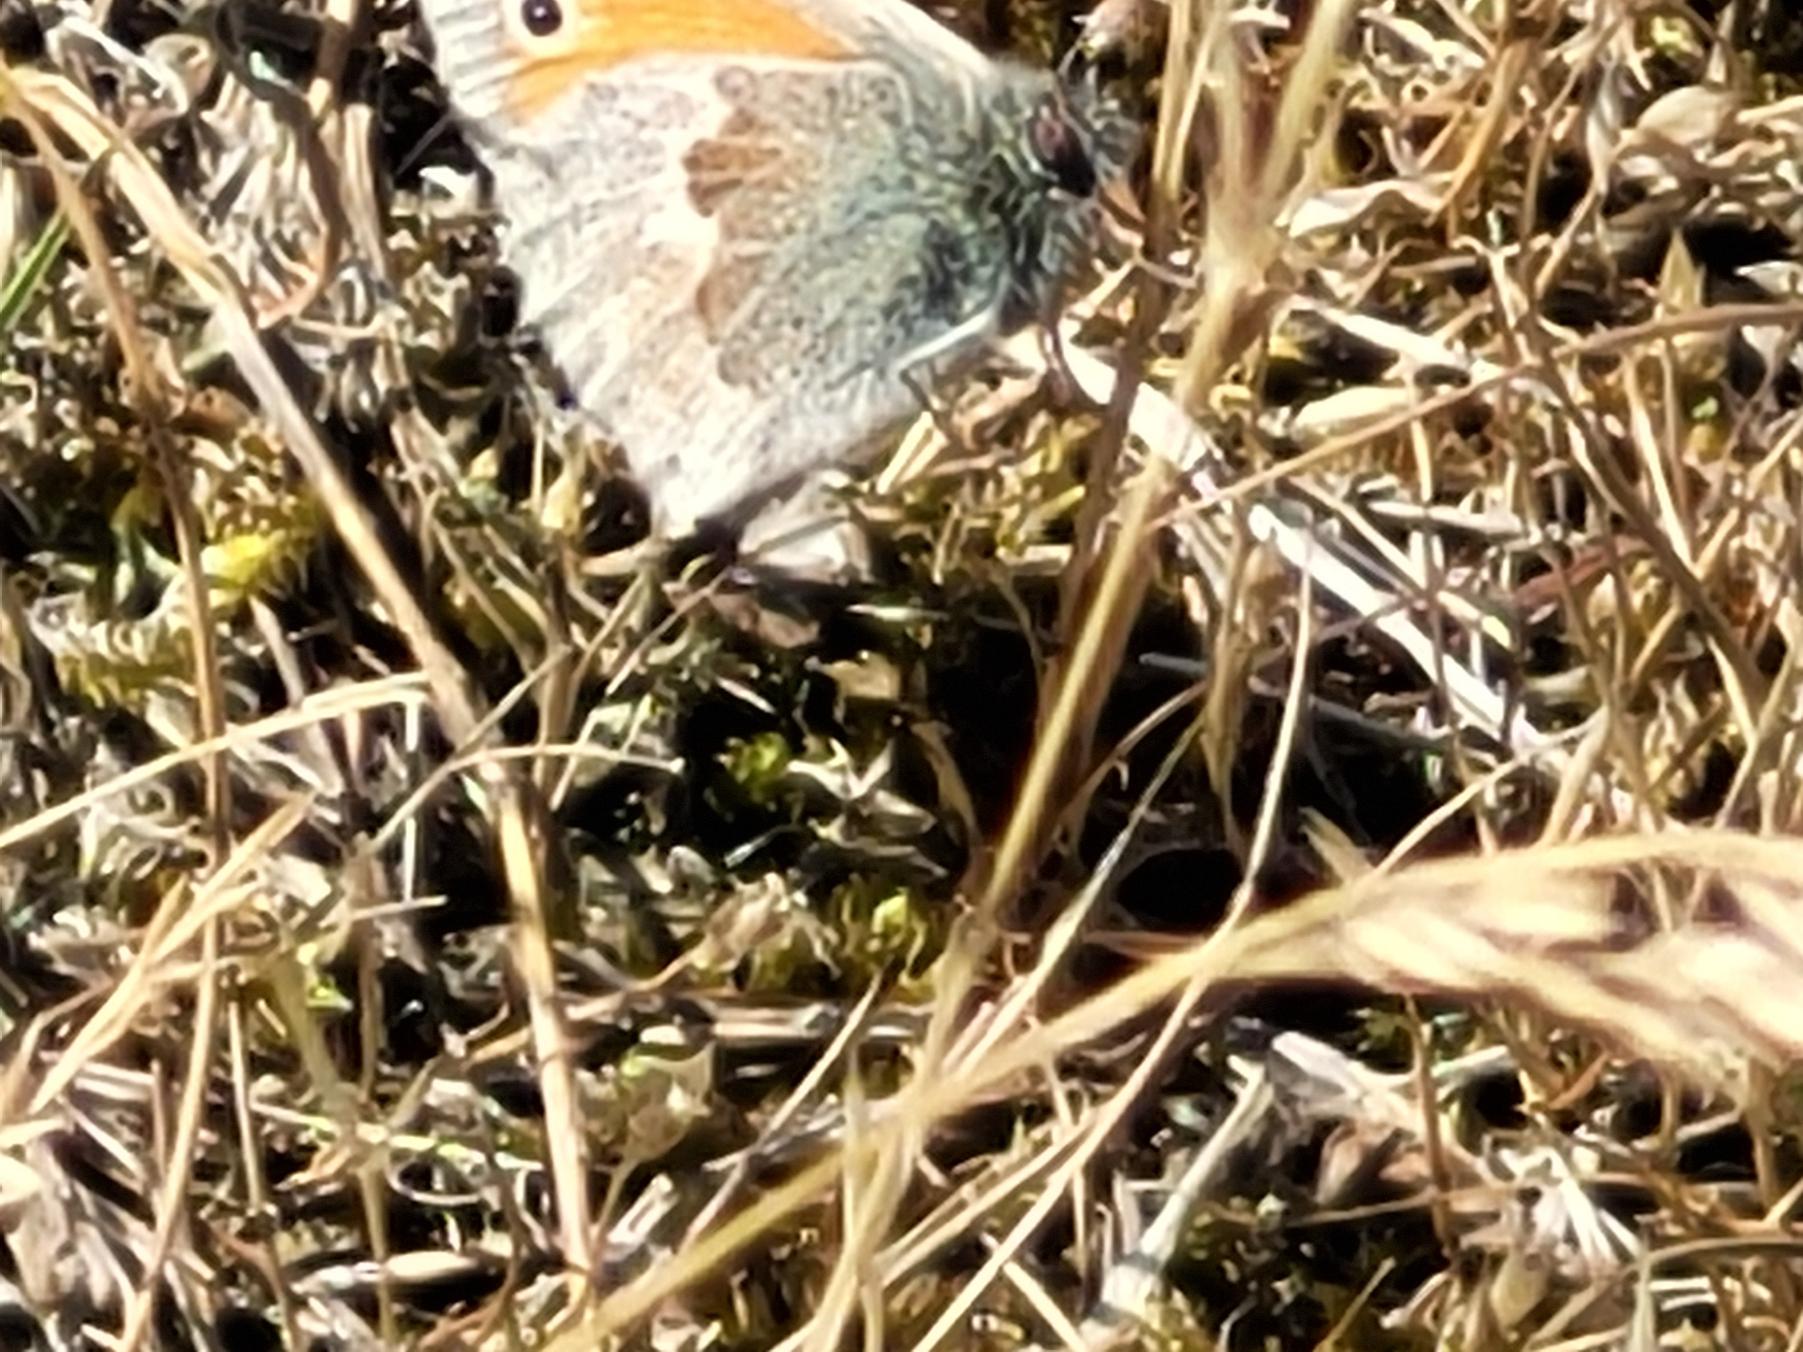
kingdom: Animalia
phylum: Arthropoda
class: Insecta
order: Lepidoptera
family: Nymphalidae
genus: Coenonympha
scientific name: Coenonympha pamphilus
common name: Okkergul randøje
